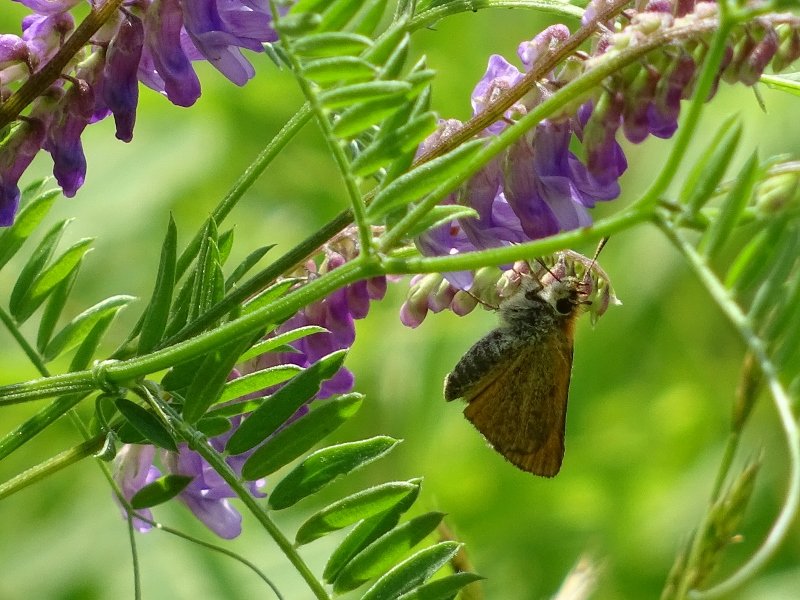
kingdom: Animalia
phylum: Arthropoda
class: Insecta
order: Lepidoptera
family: Hesperiidae
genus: Thymelicus
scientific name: Thymelicus lineola
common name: European Skipper
